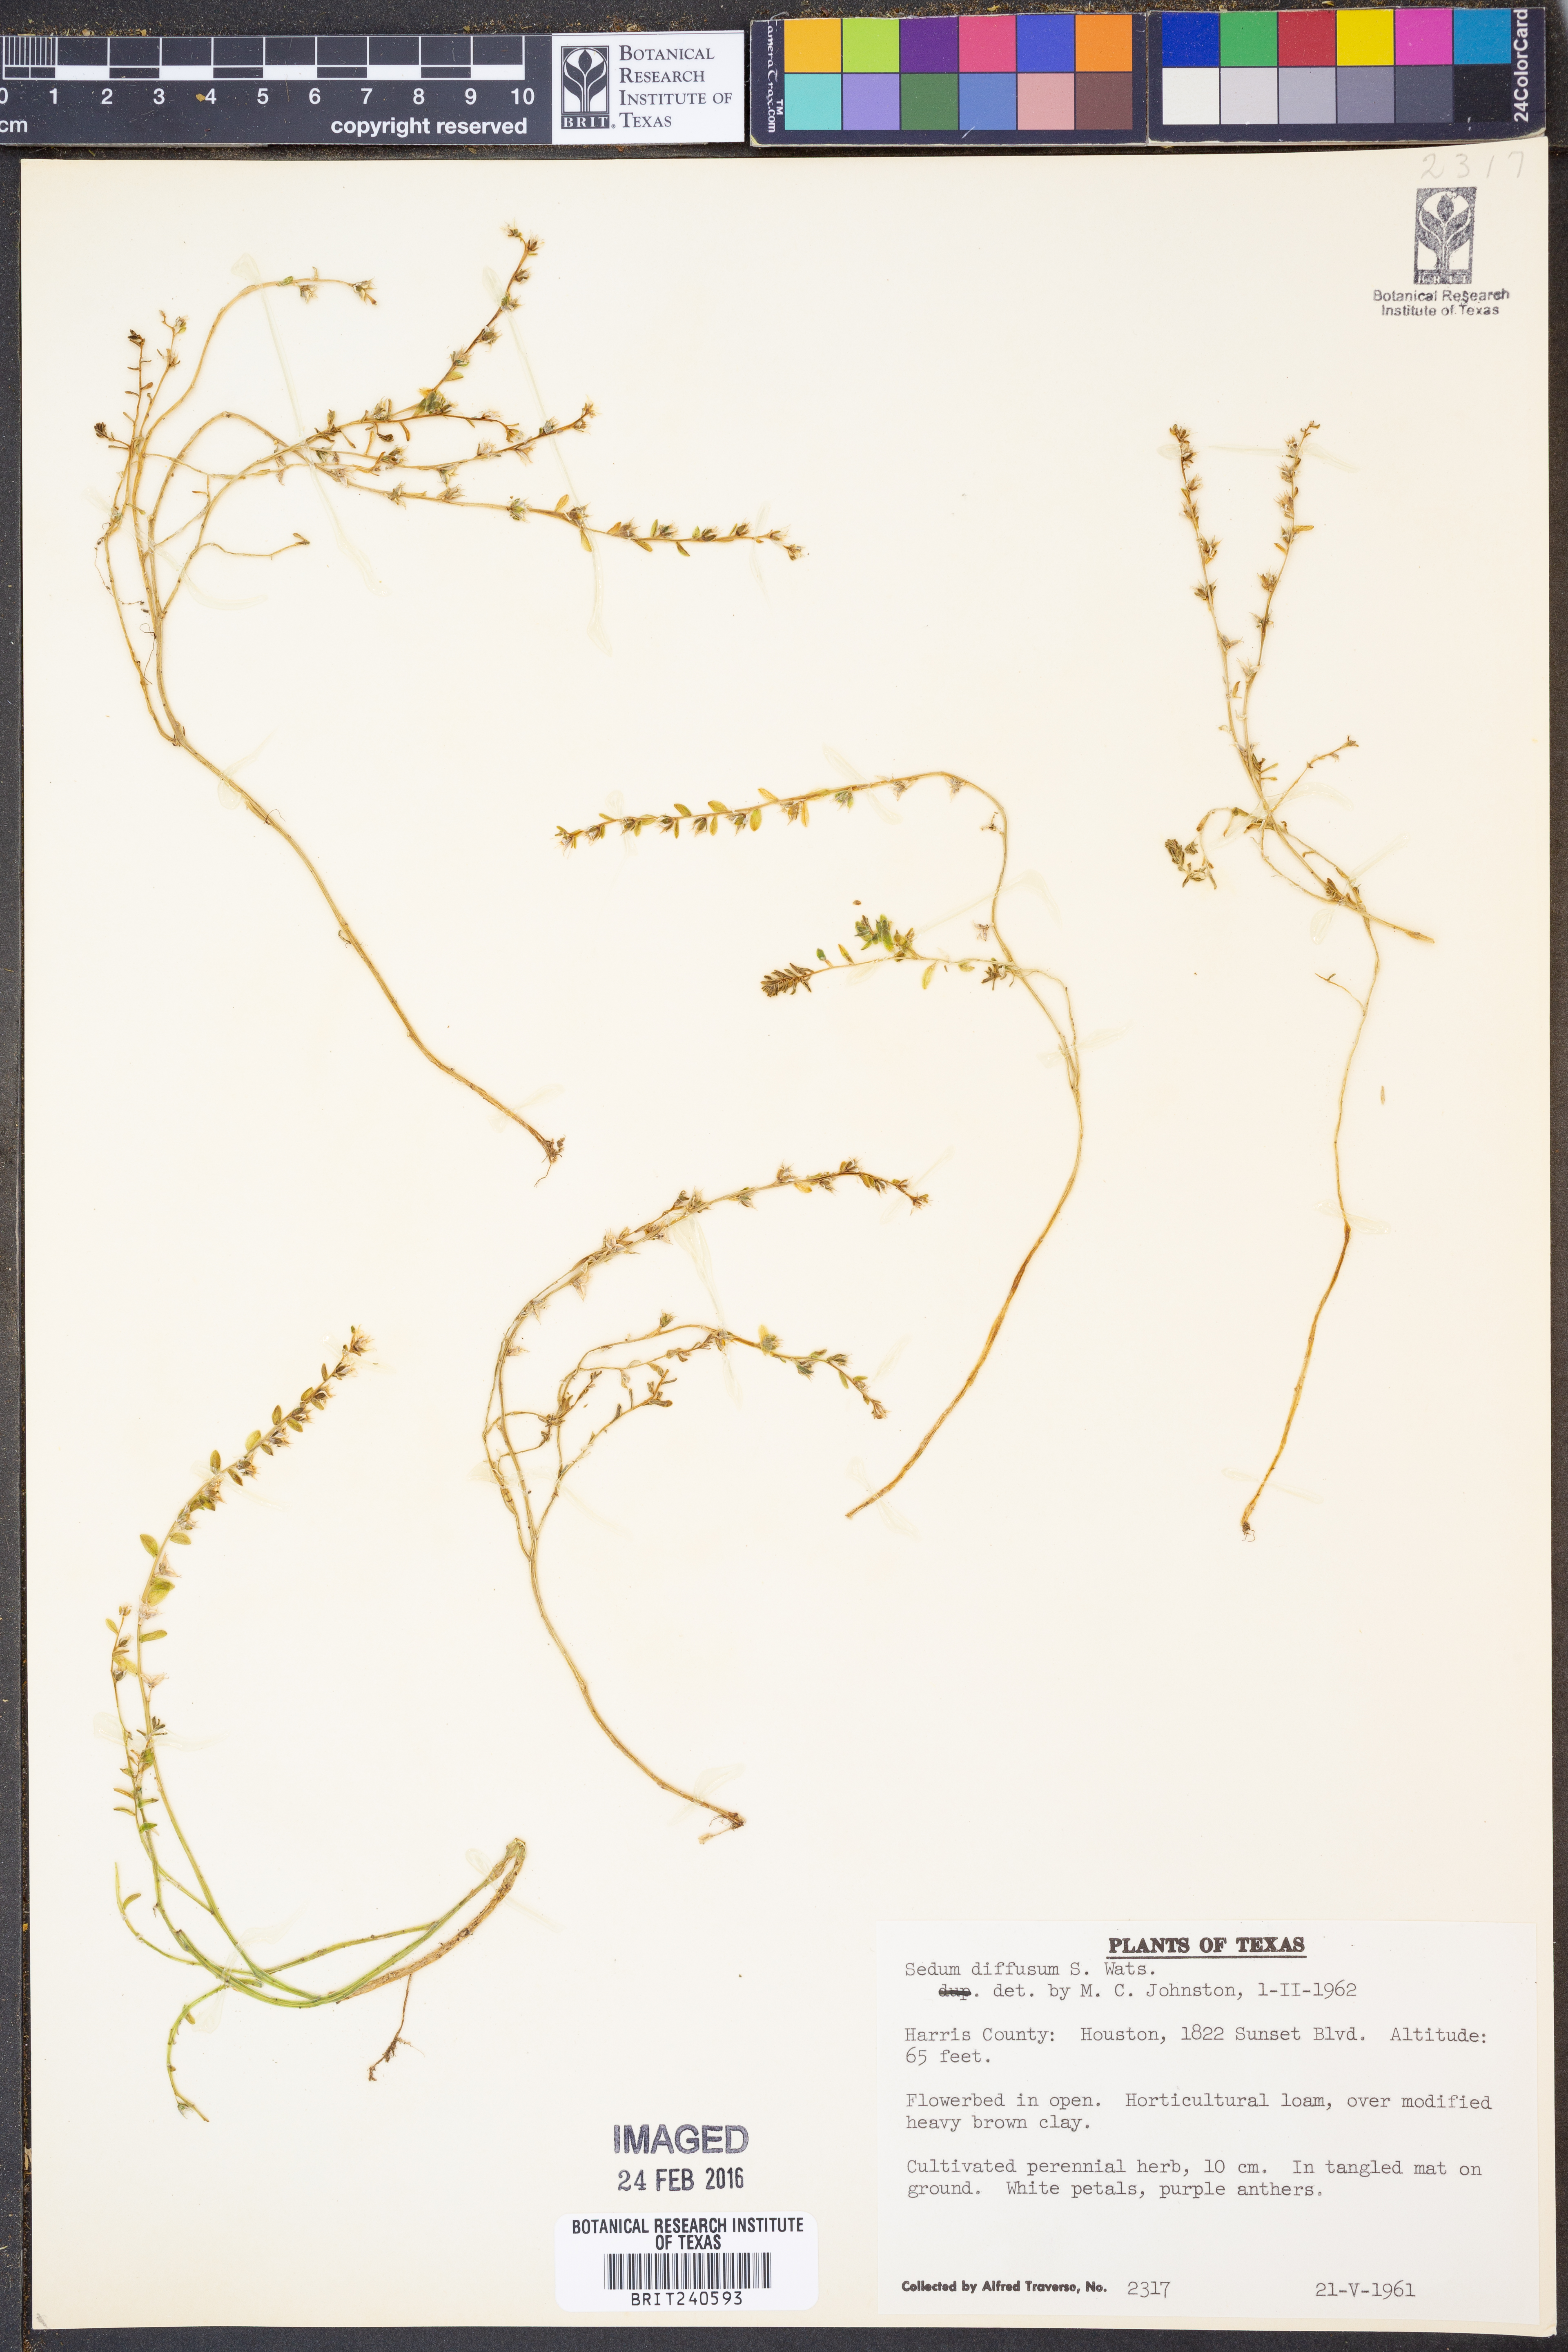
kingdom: Plantae
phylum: Tracheophyta
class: Magnoliopsida
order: Saxifragales
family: Crassulaceae
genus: Sedum
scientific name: Sedum diffusum
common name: Stonecrop
